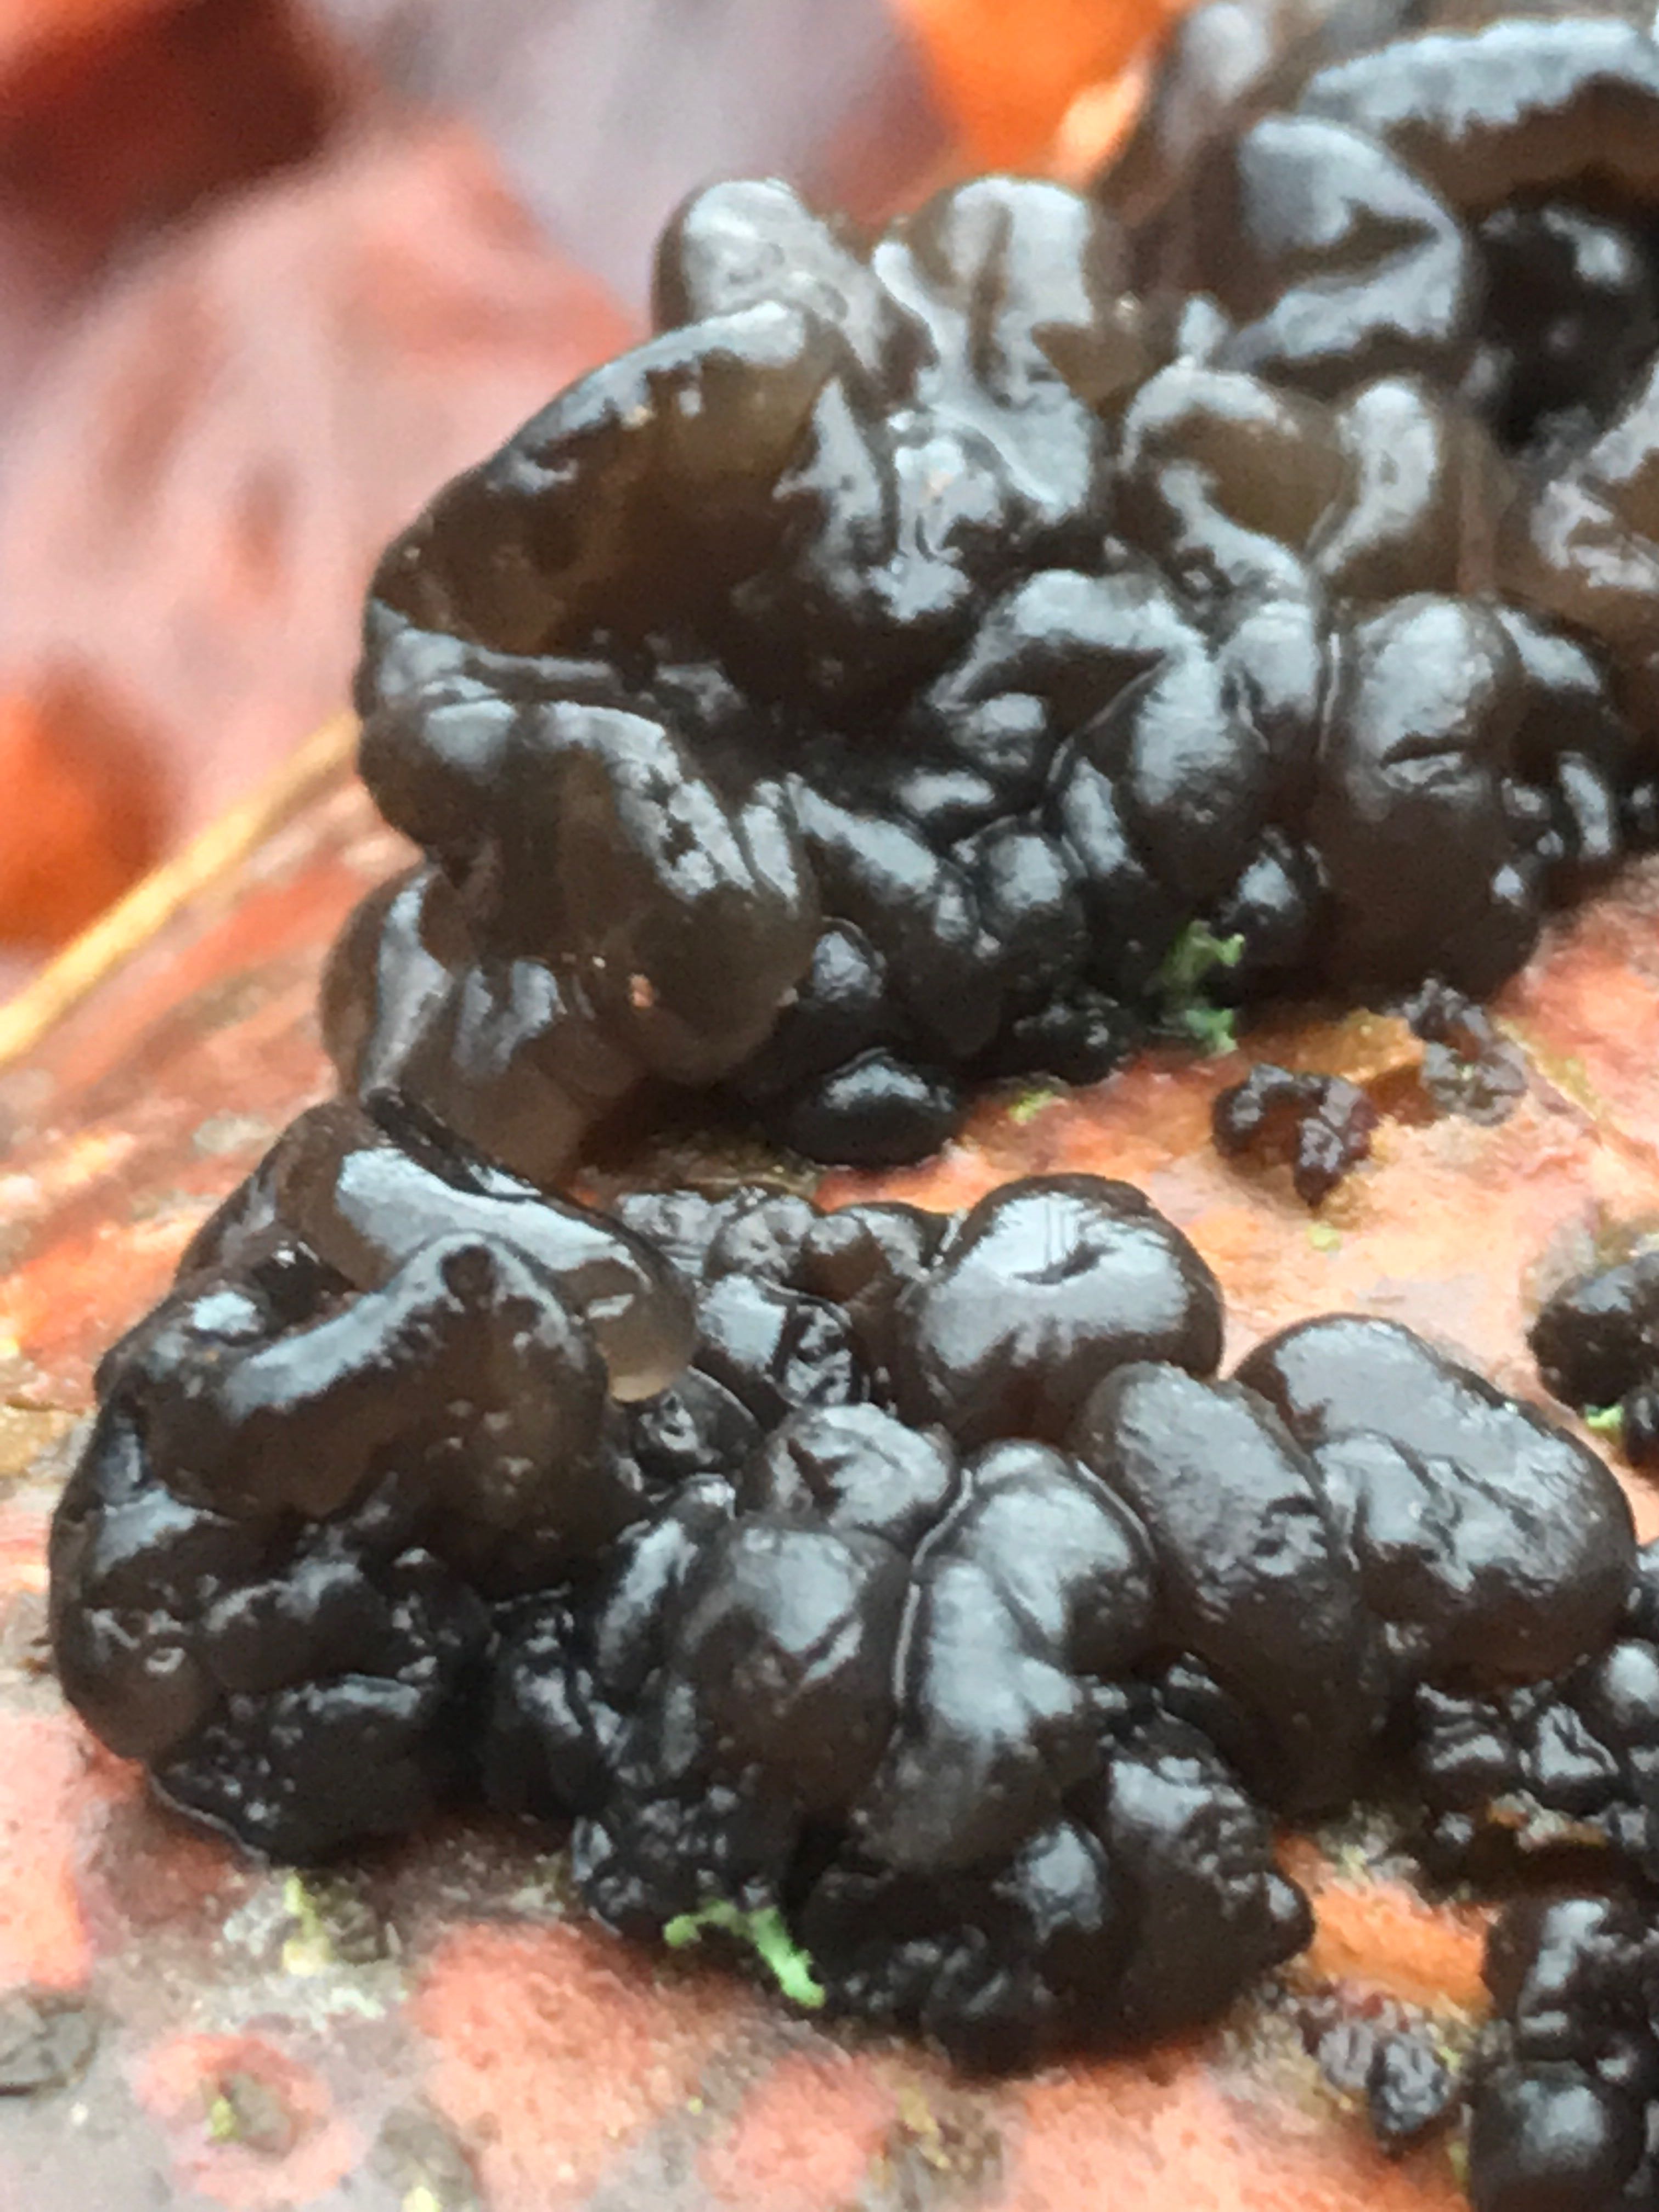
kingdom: Fungi
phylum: Basidiomycota
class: Agaricomycetes
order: Auriculariales
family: Auriculariaceae
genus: Exidia
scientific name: Exidia nigricans
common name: almindelig bævretop
